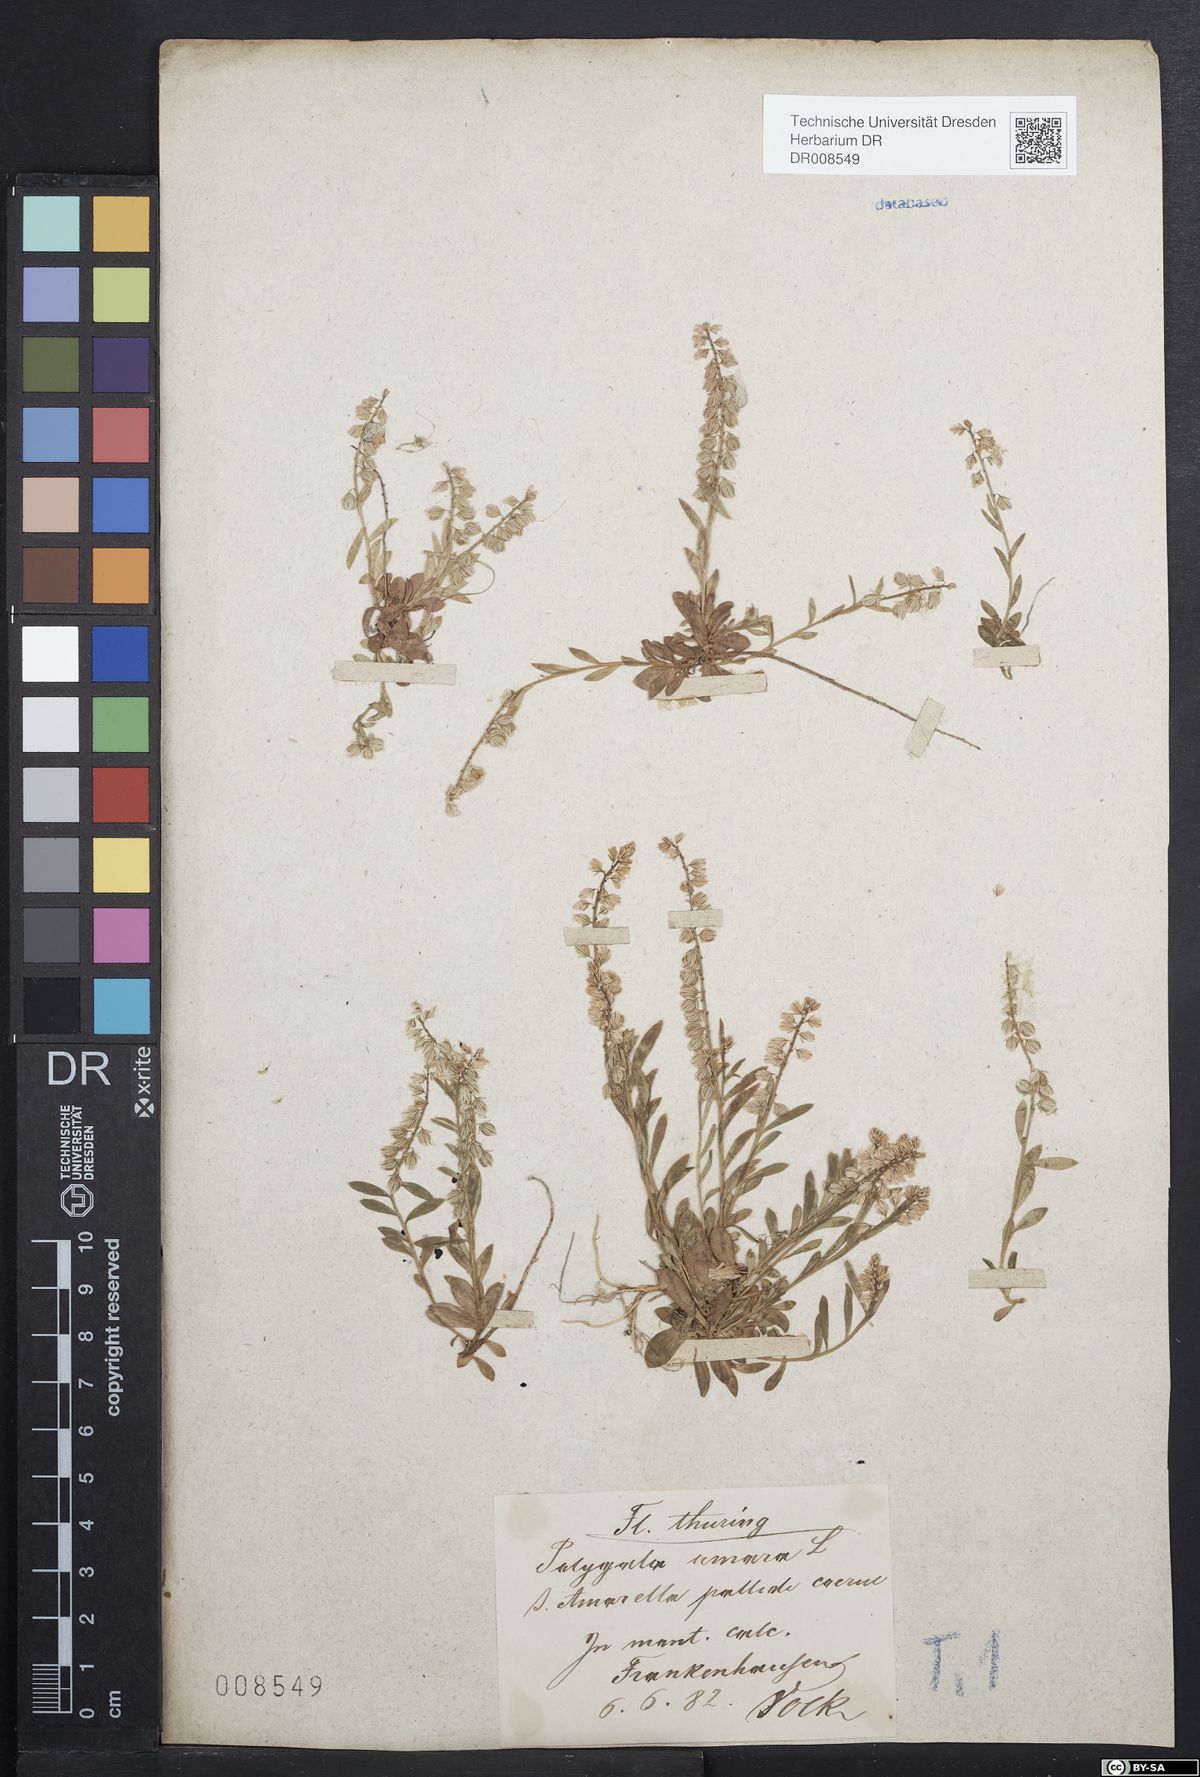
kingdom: Plantae
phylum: Tracheophyta
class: Magnoliopsida
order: Fabales
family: Polygalaceae
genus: Polygala
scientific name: Polygala amarella
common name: Dwarf milkwort
